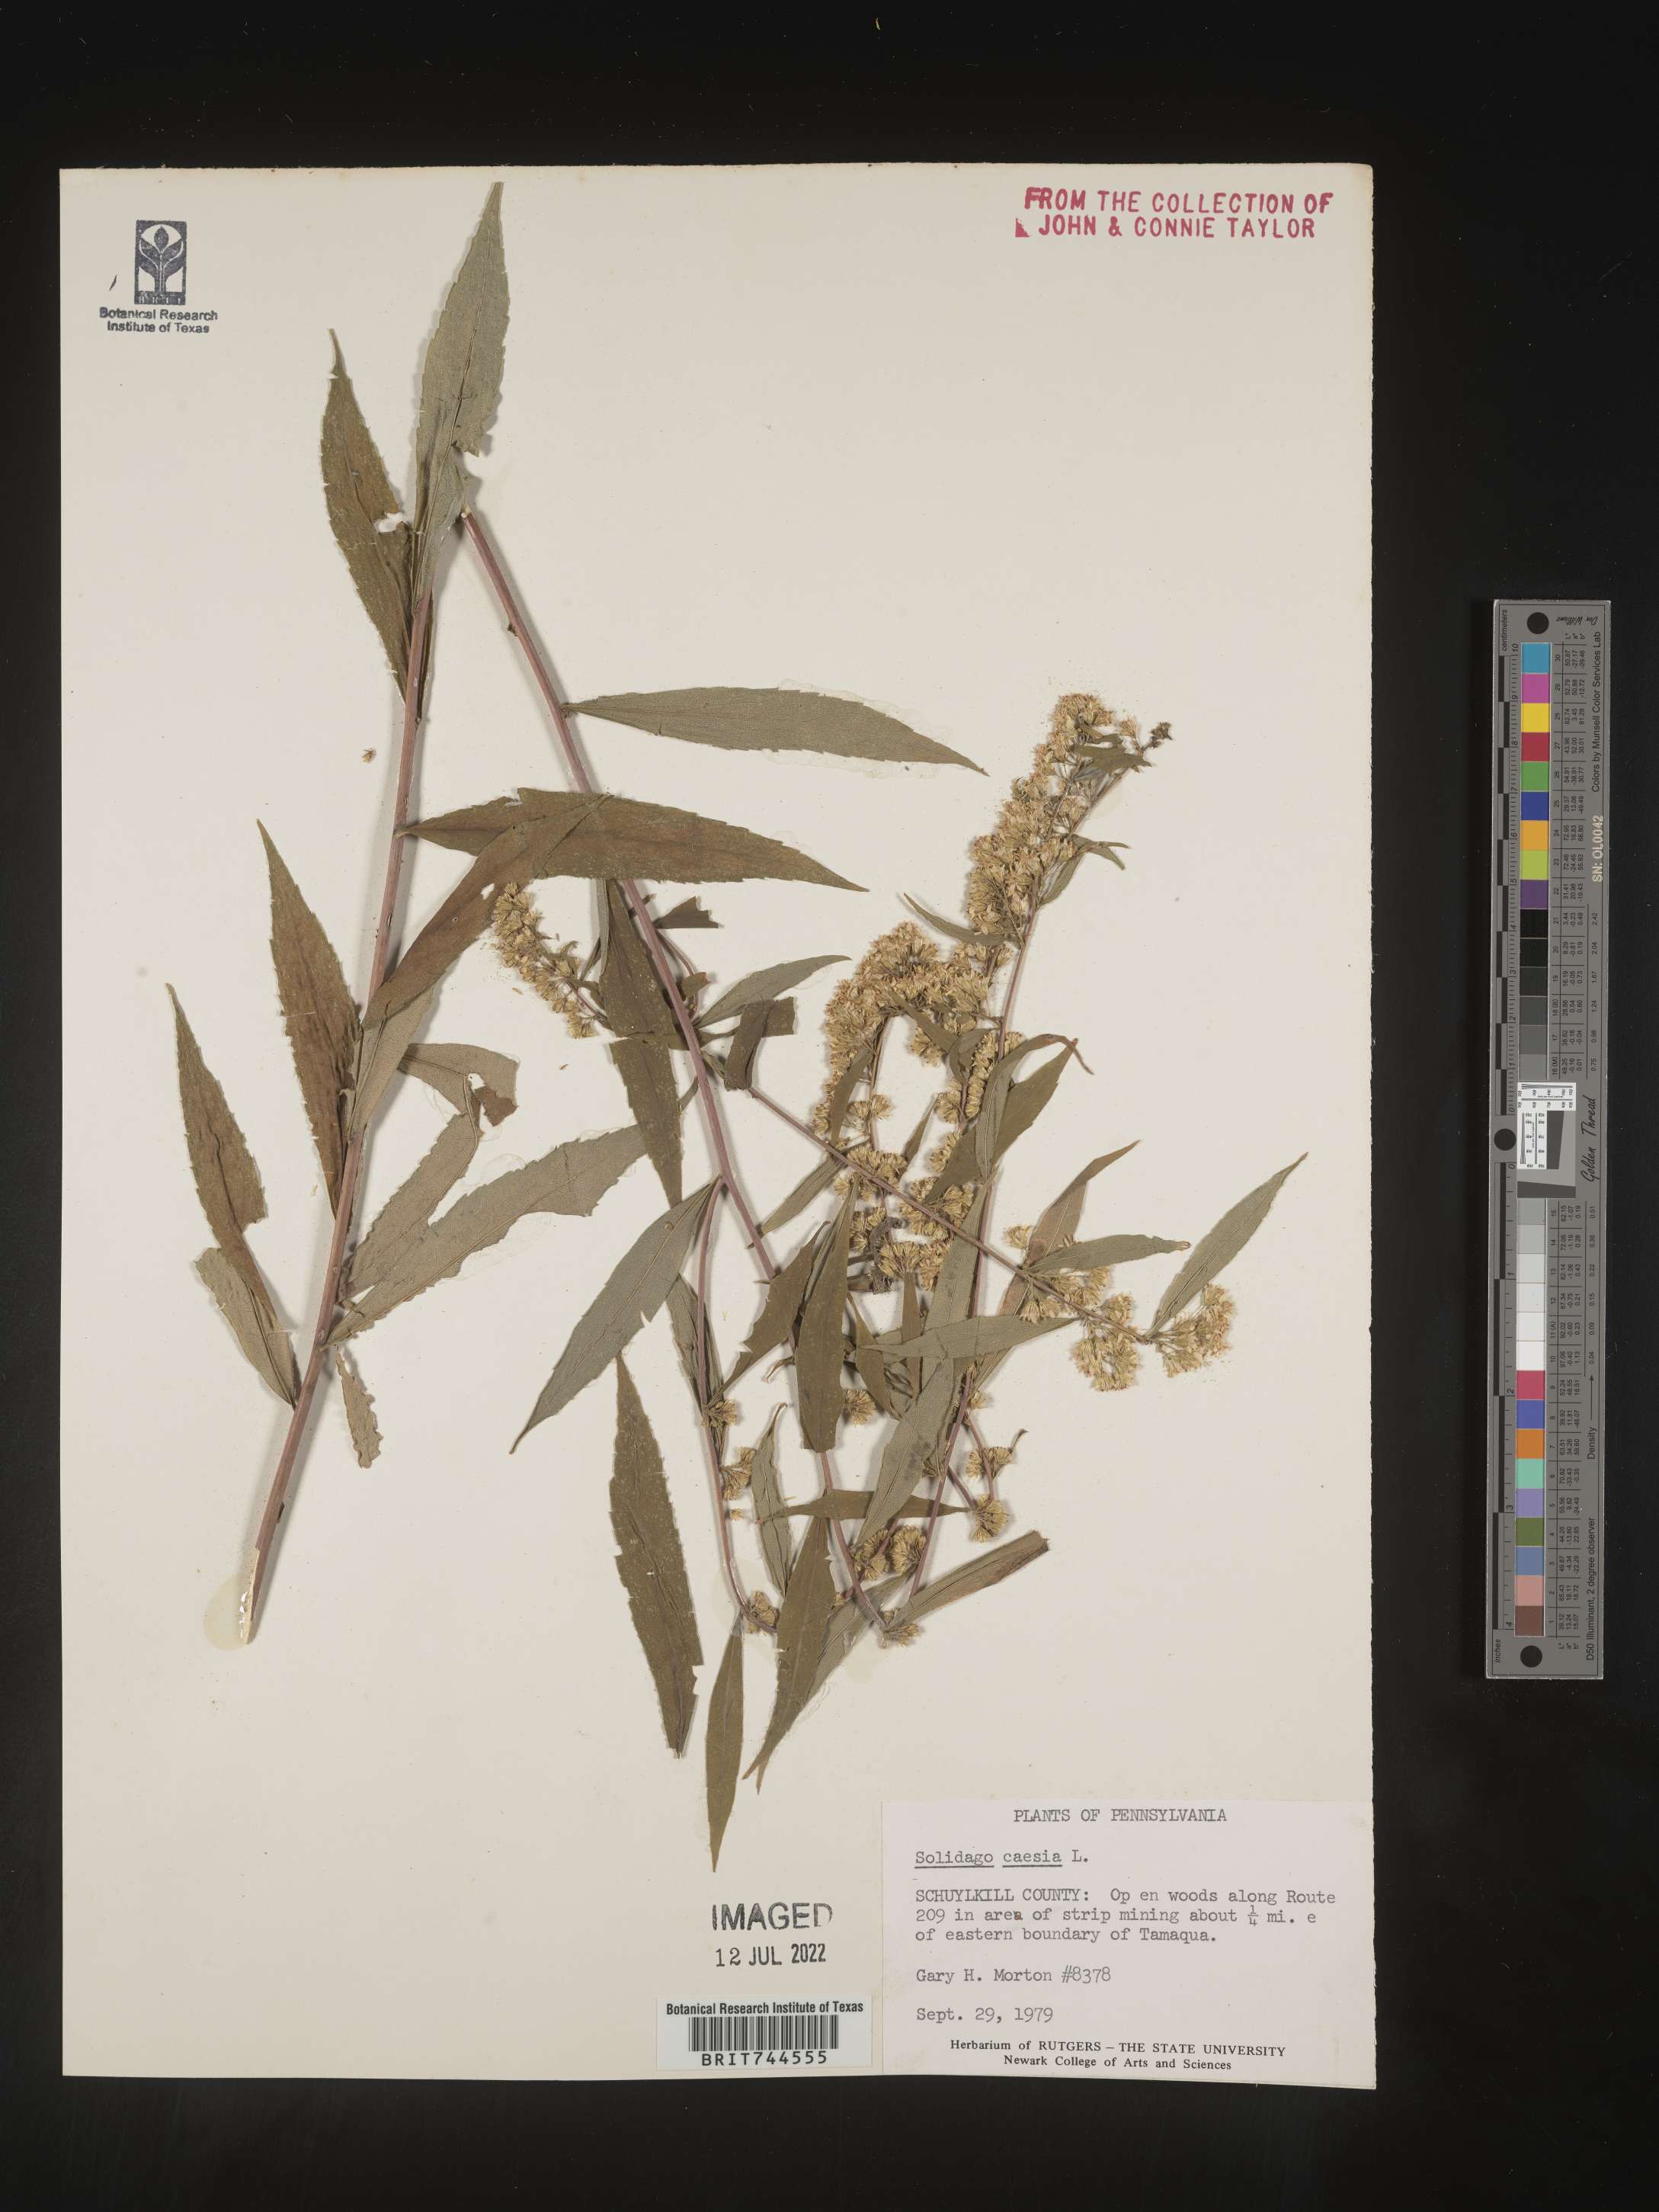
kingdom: Plantae
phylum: Tracheophyta
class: Magnoliopsida
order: Asterales
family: Asteraceae
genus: Solidago
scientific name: Solidago caesia
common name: Woodland goldenrod
